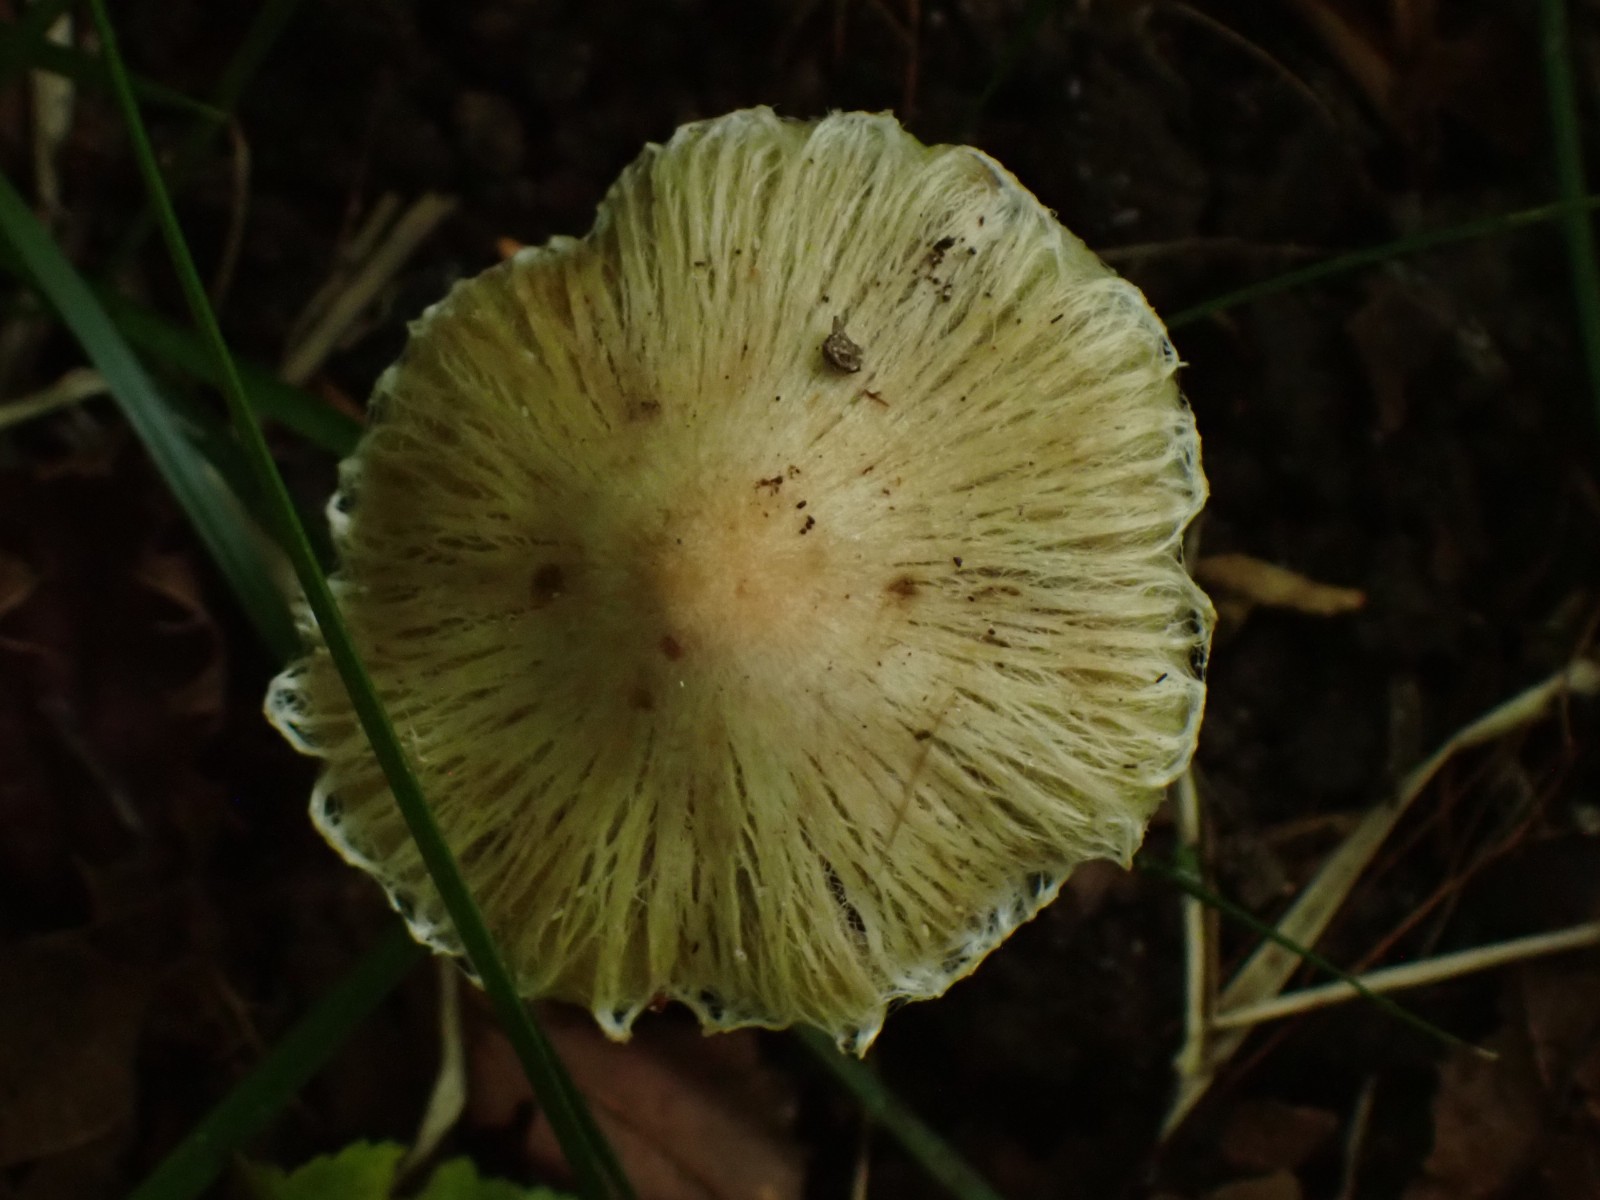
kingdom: Fungi
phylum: Basidiomycota
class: Agaricomycetes
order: Agaricales
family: Inocybaceae
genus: Inosperma
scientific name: Inosperma
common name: Trævlhat
